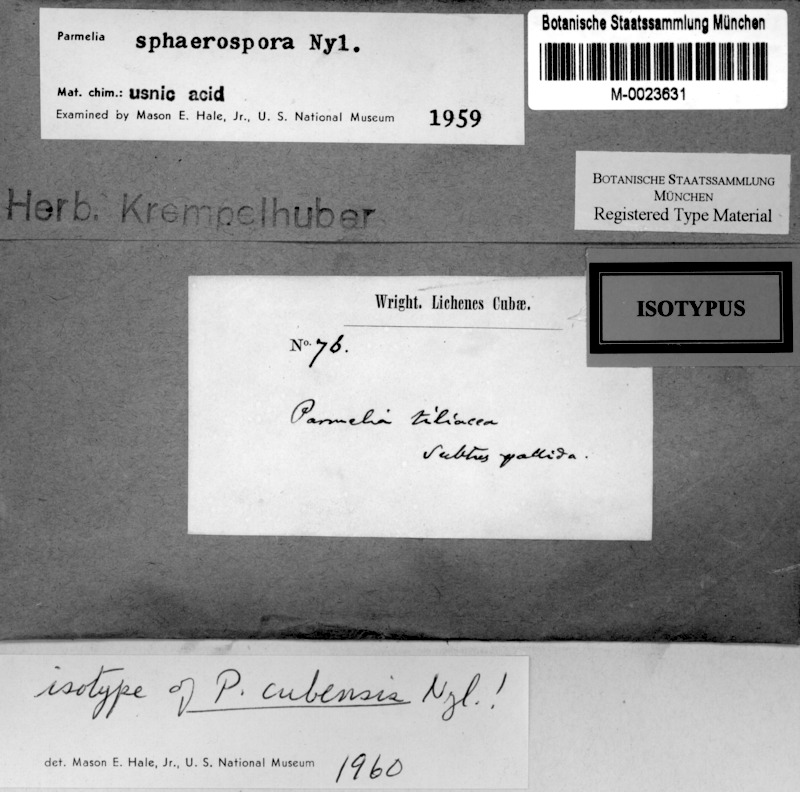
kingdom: Fungi
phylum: Ascomycota
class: Lecanoromycetes
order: Lecanorales
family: Parmeliaceae
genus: Pseudoparmelia
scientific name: Pseudoparmelia cubensis
